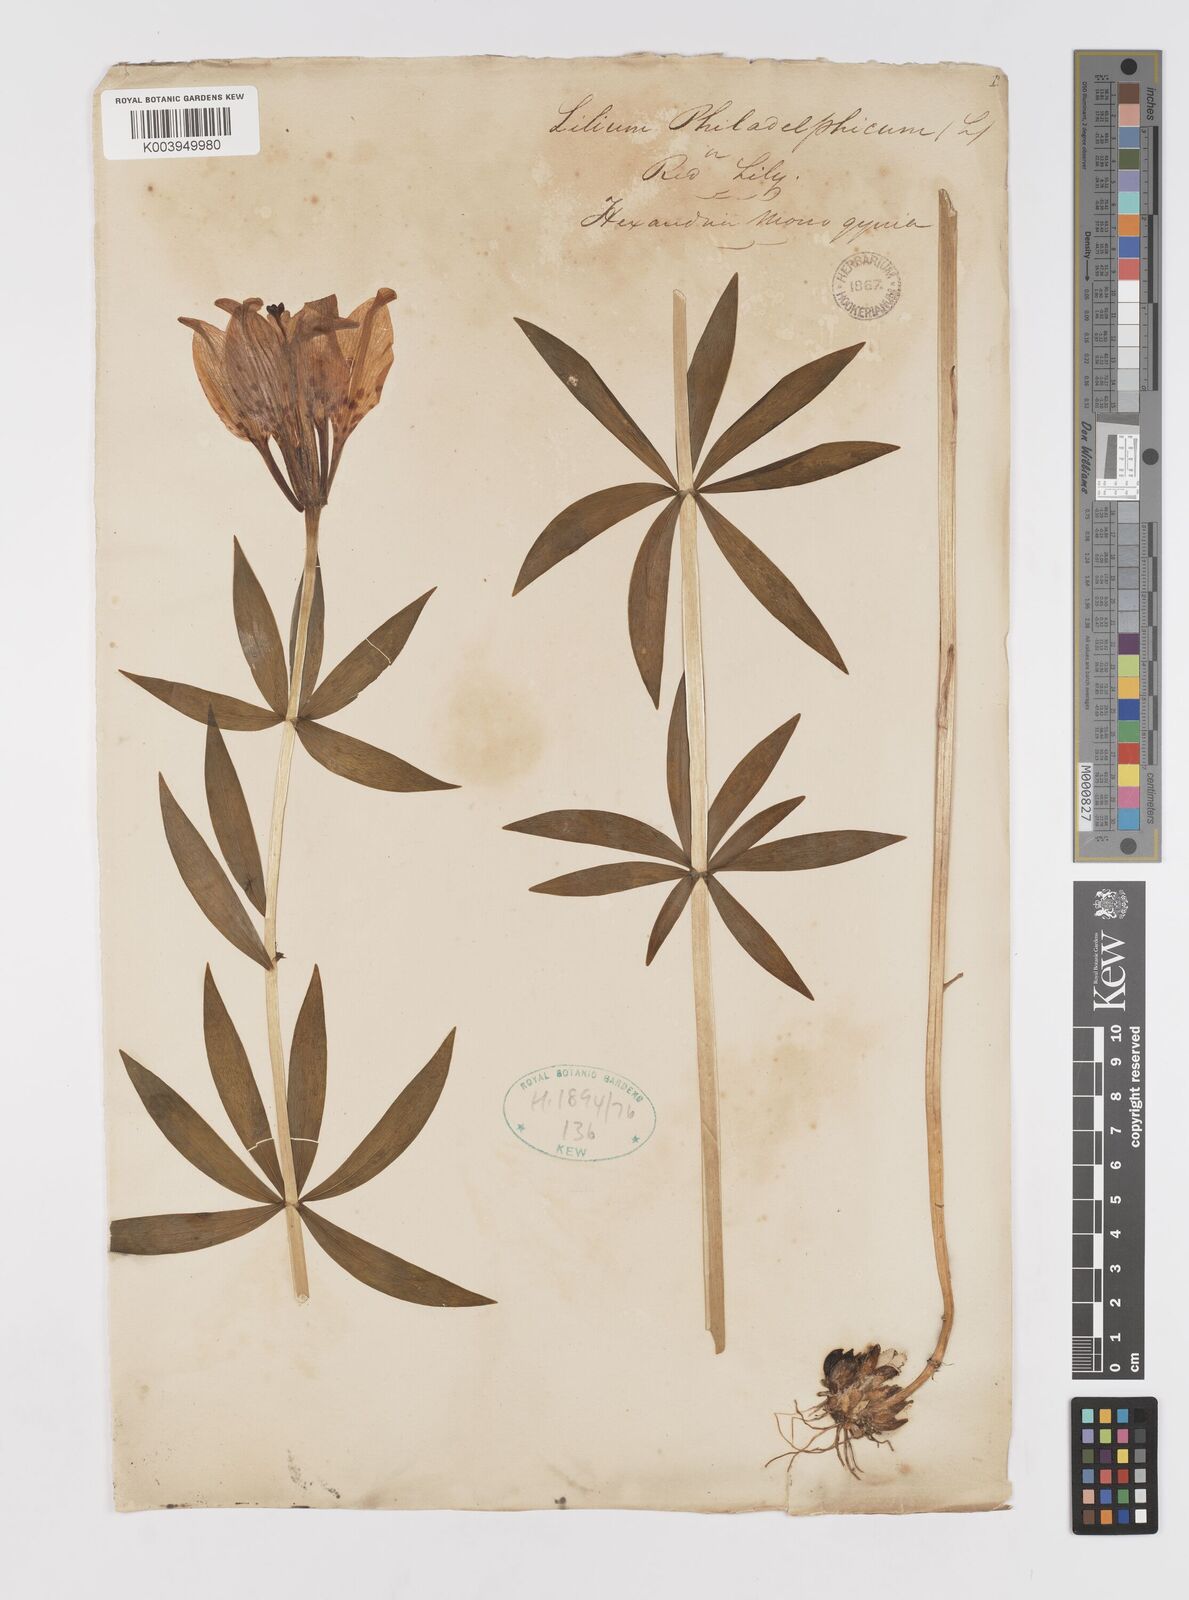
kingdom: Plantae
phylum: Tracheophyta
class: Liliopsida
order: Liliales
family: Liliaceae
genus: Lilium
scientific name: Lilium philadelphicum
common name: Red lily
